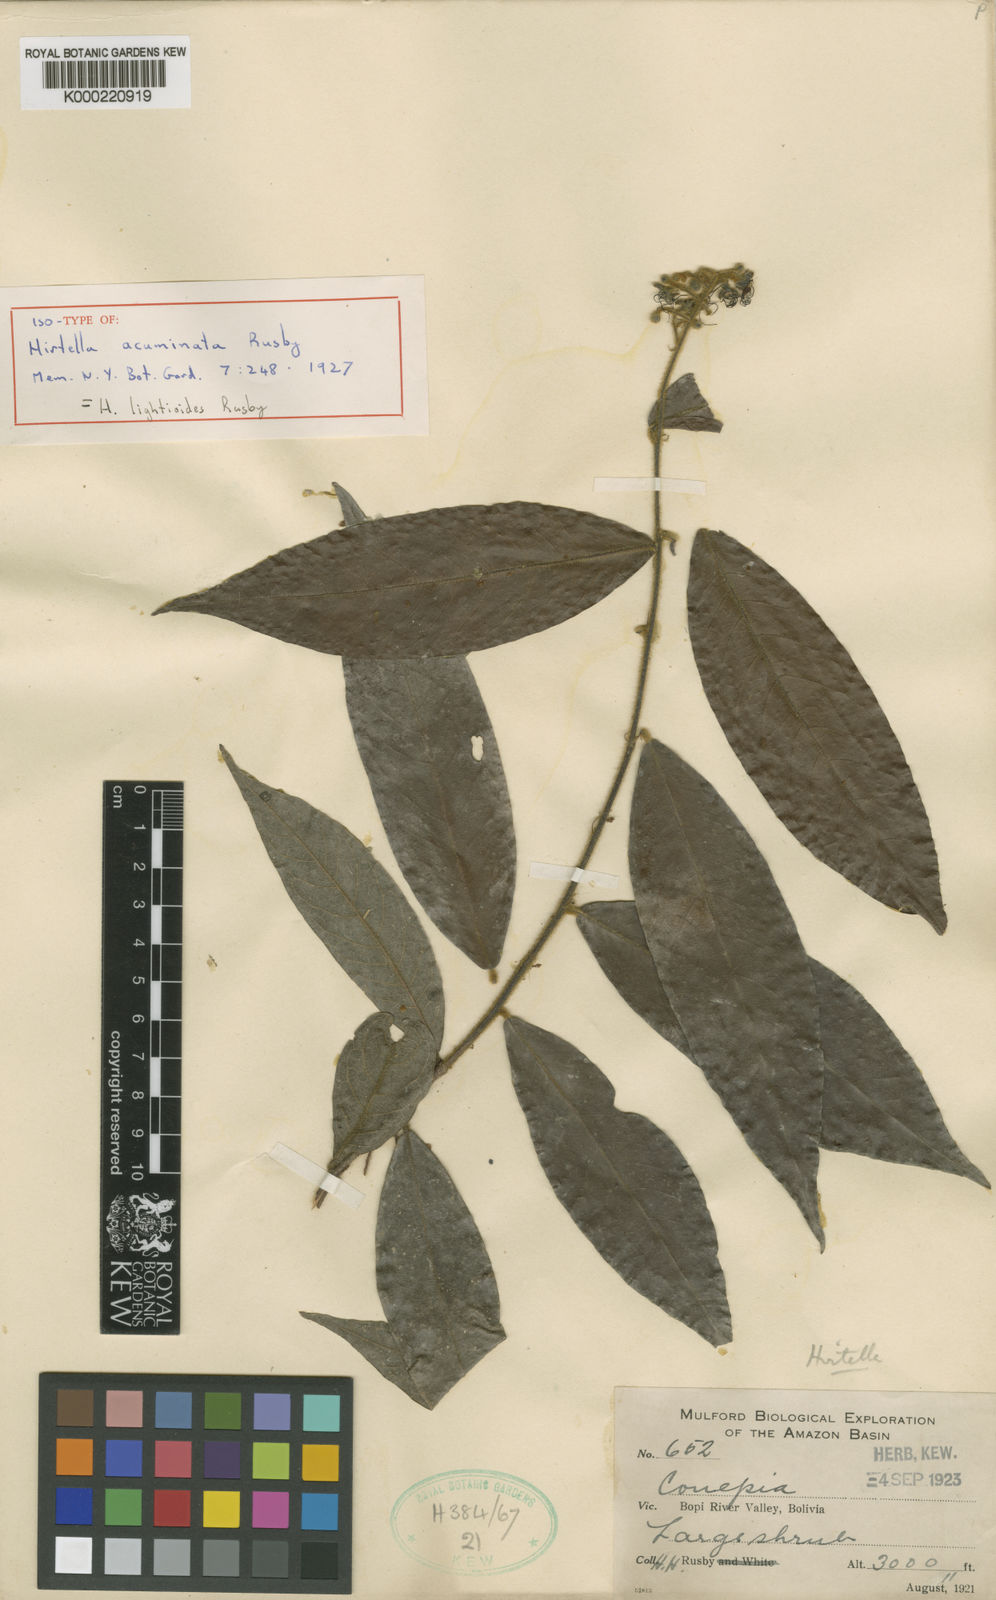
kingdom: Plantae
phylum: Tracheophyta
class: Magnoliopsida
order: Malpighiales
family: Chrysobalanaceae
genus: Hirtella
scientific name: Hirtella lightioides
